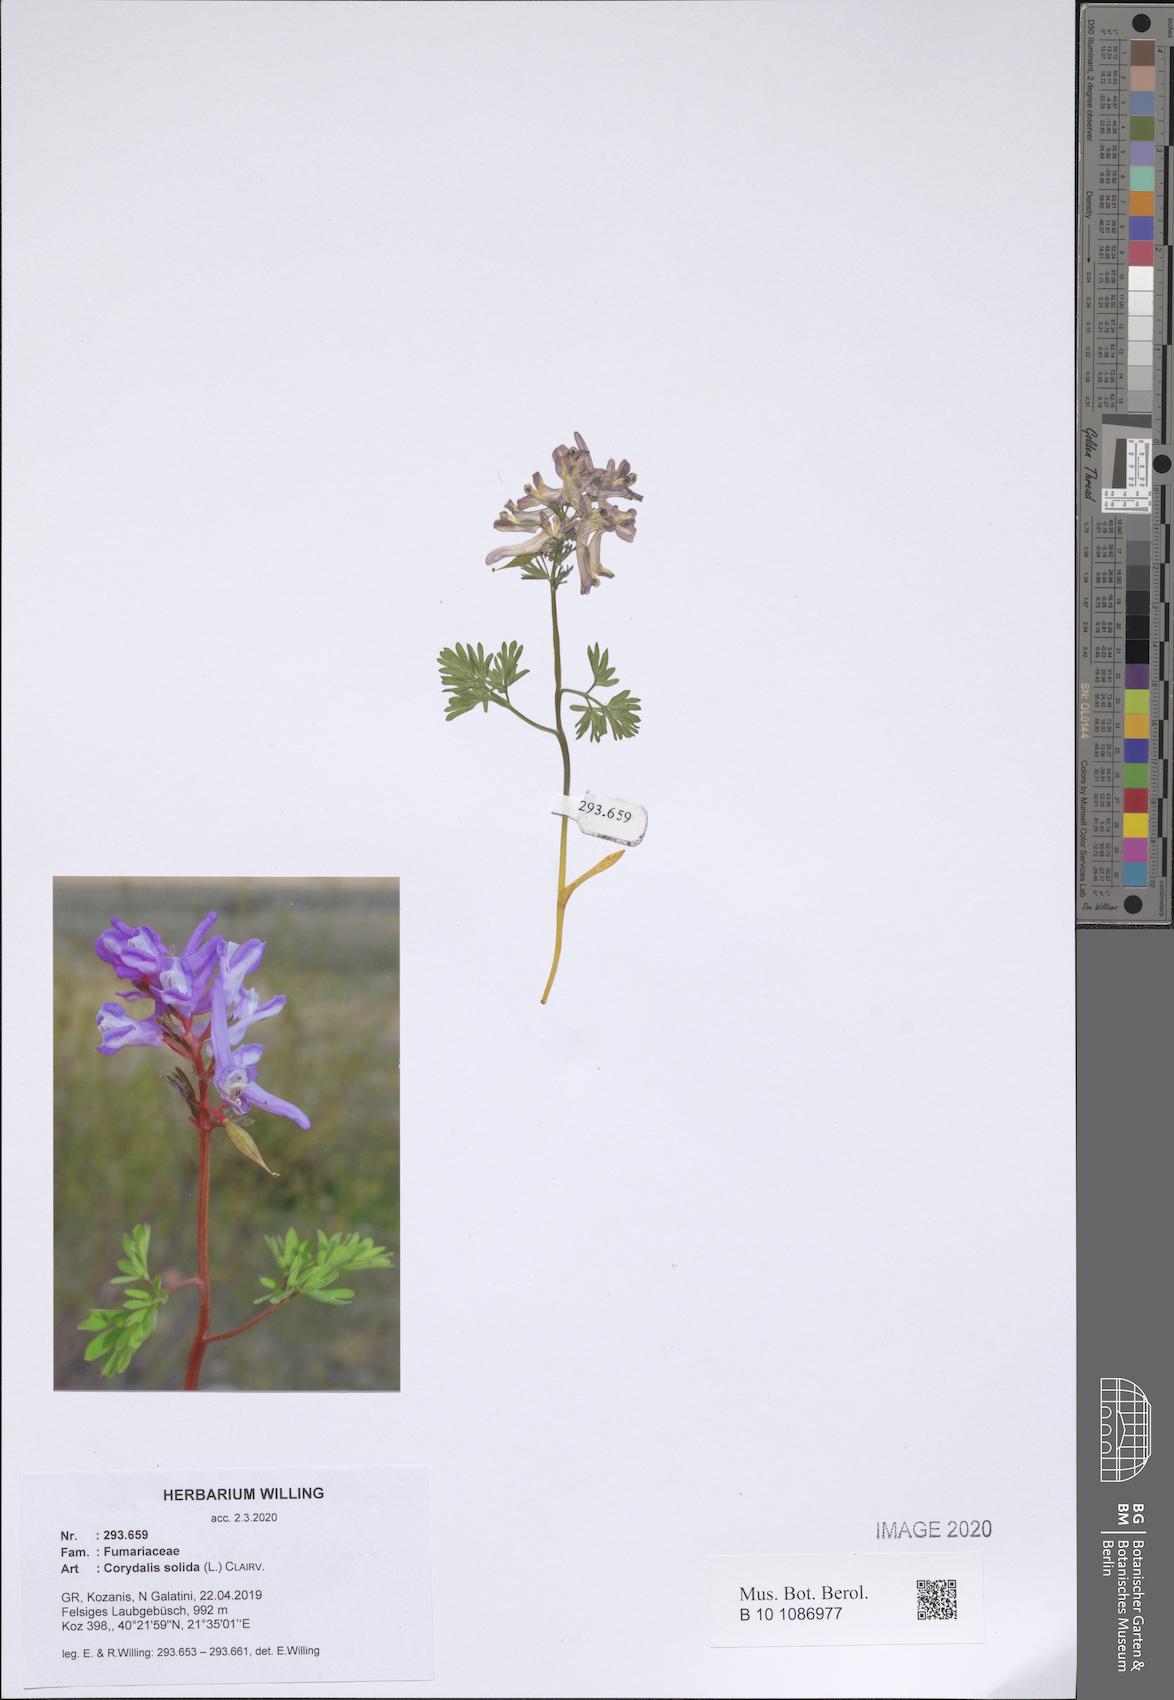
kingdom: Plantae
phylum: Tracheophyta
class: Magnoliopsida
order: Ranunculales
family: Papaveraceae
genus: Corydalis
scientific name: Corydalis solida
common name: Bird-in-a-bush
